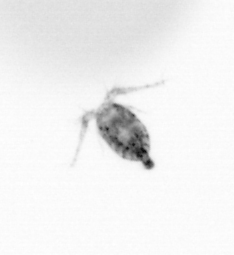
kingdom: Animalia
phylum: Arthropoda
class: Copepoda
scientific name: Copepoda
